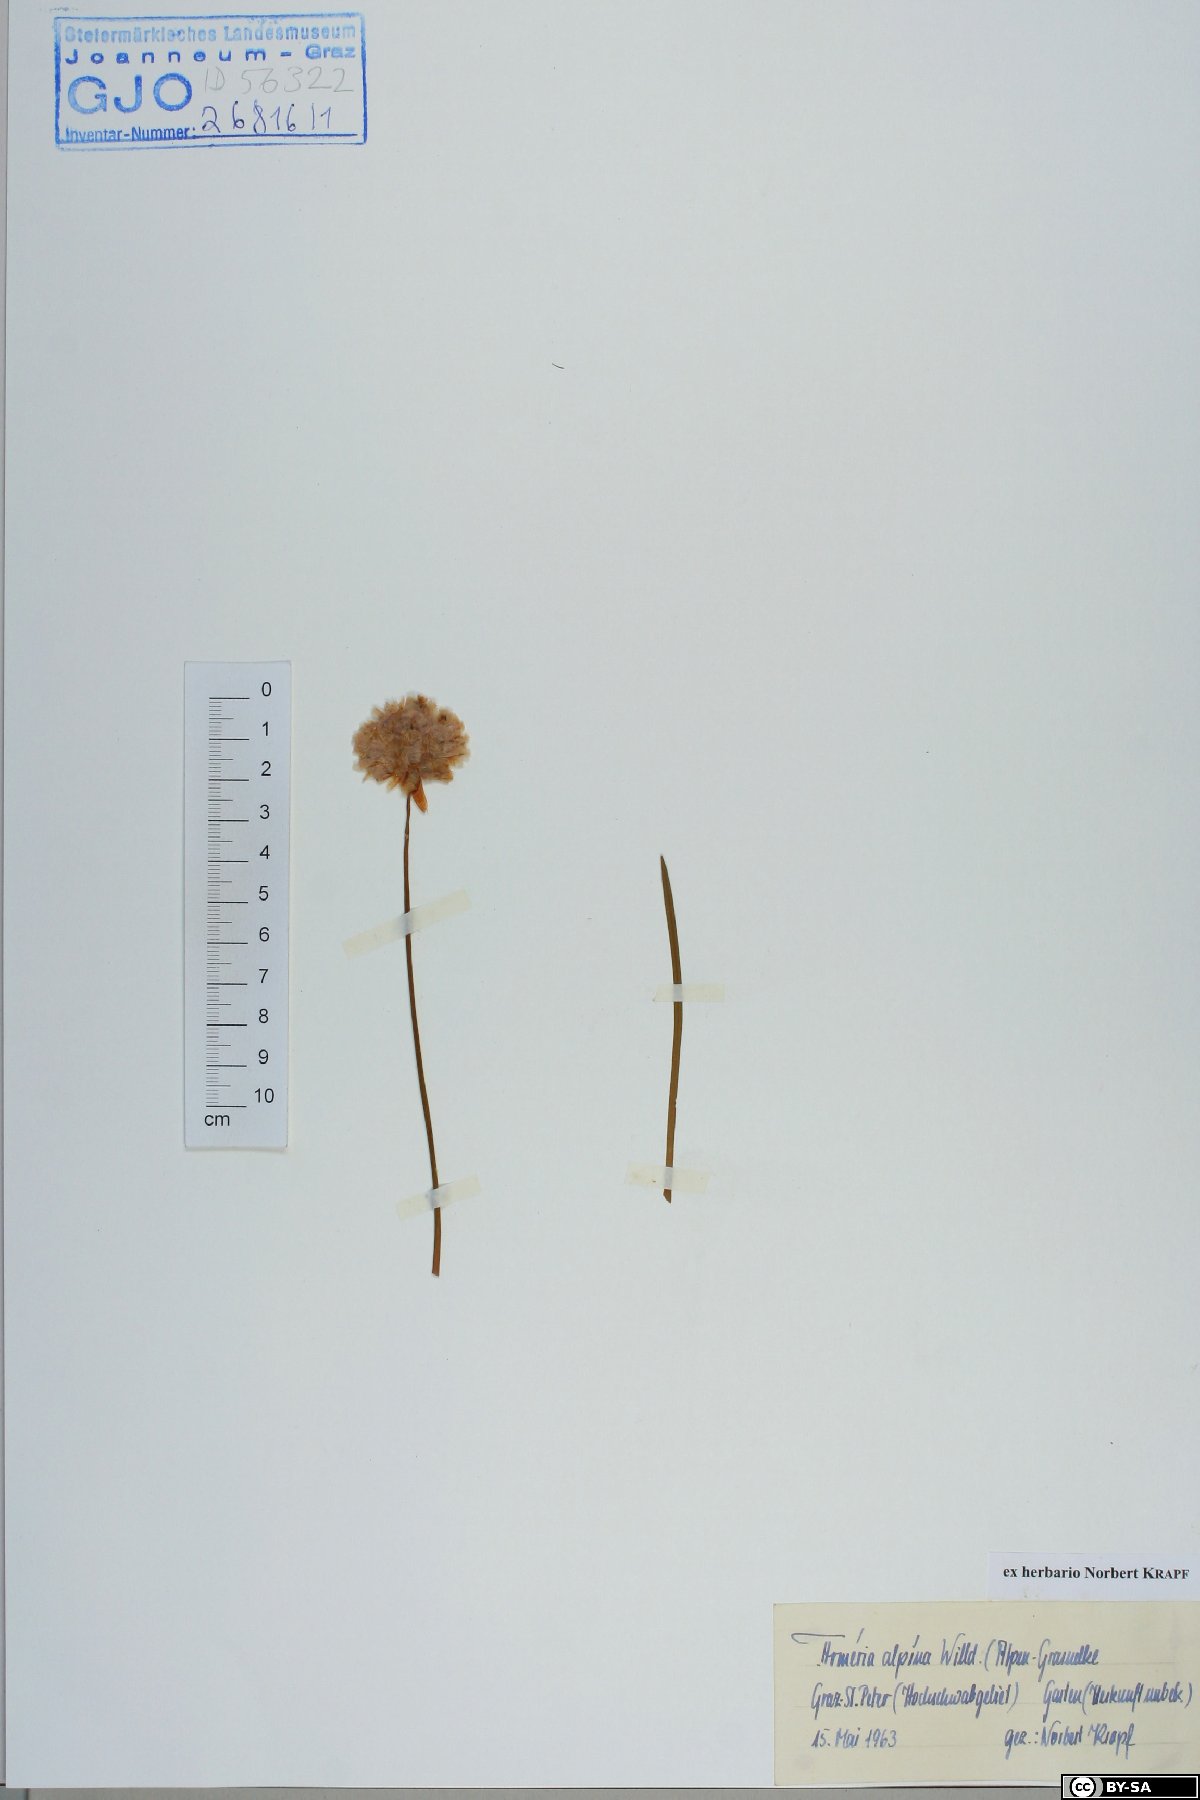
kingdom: Plantae
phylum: Tracheophyta
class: Magnoliopsida
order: Caryophyllales
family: Plumbaginaceae
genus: Armeria
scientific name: Armeria alpina
